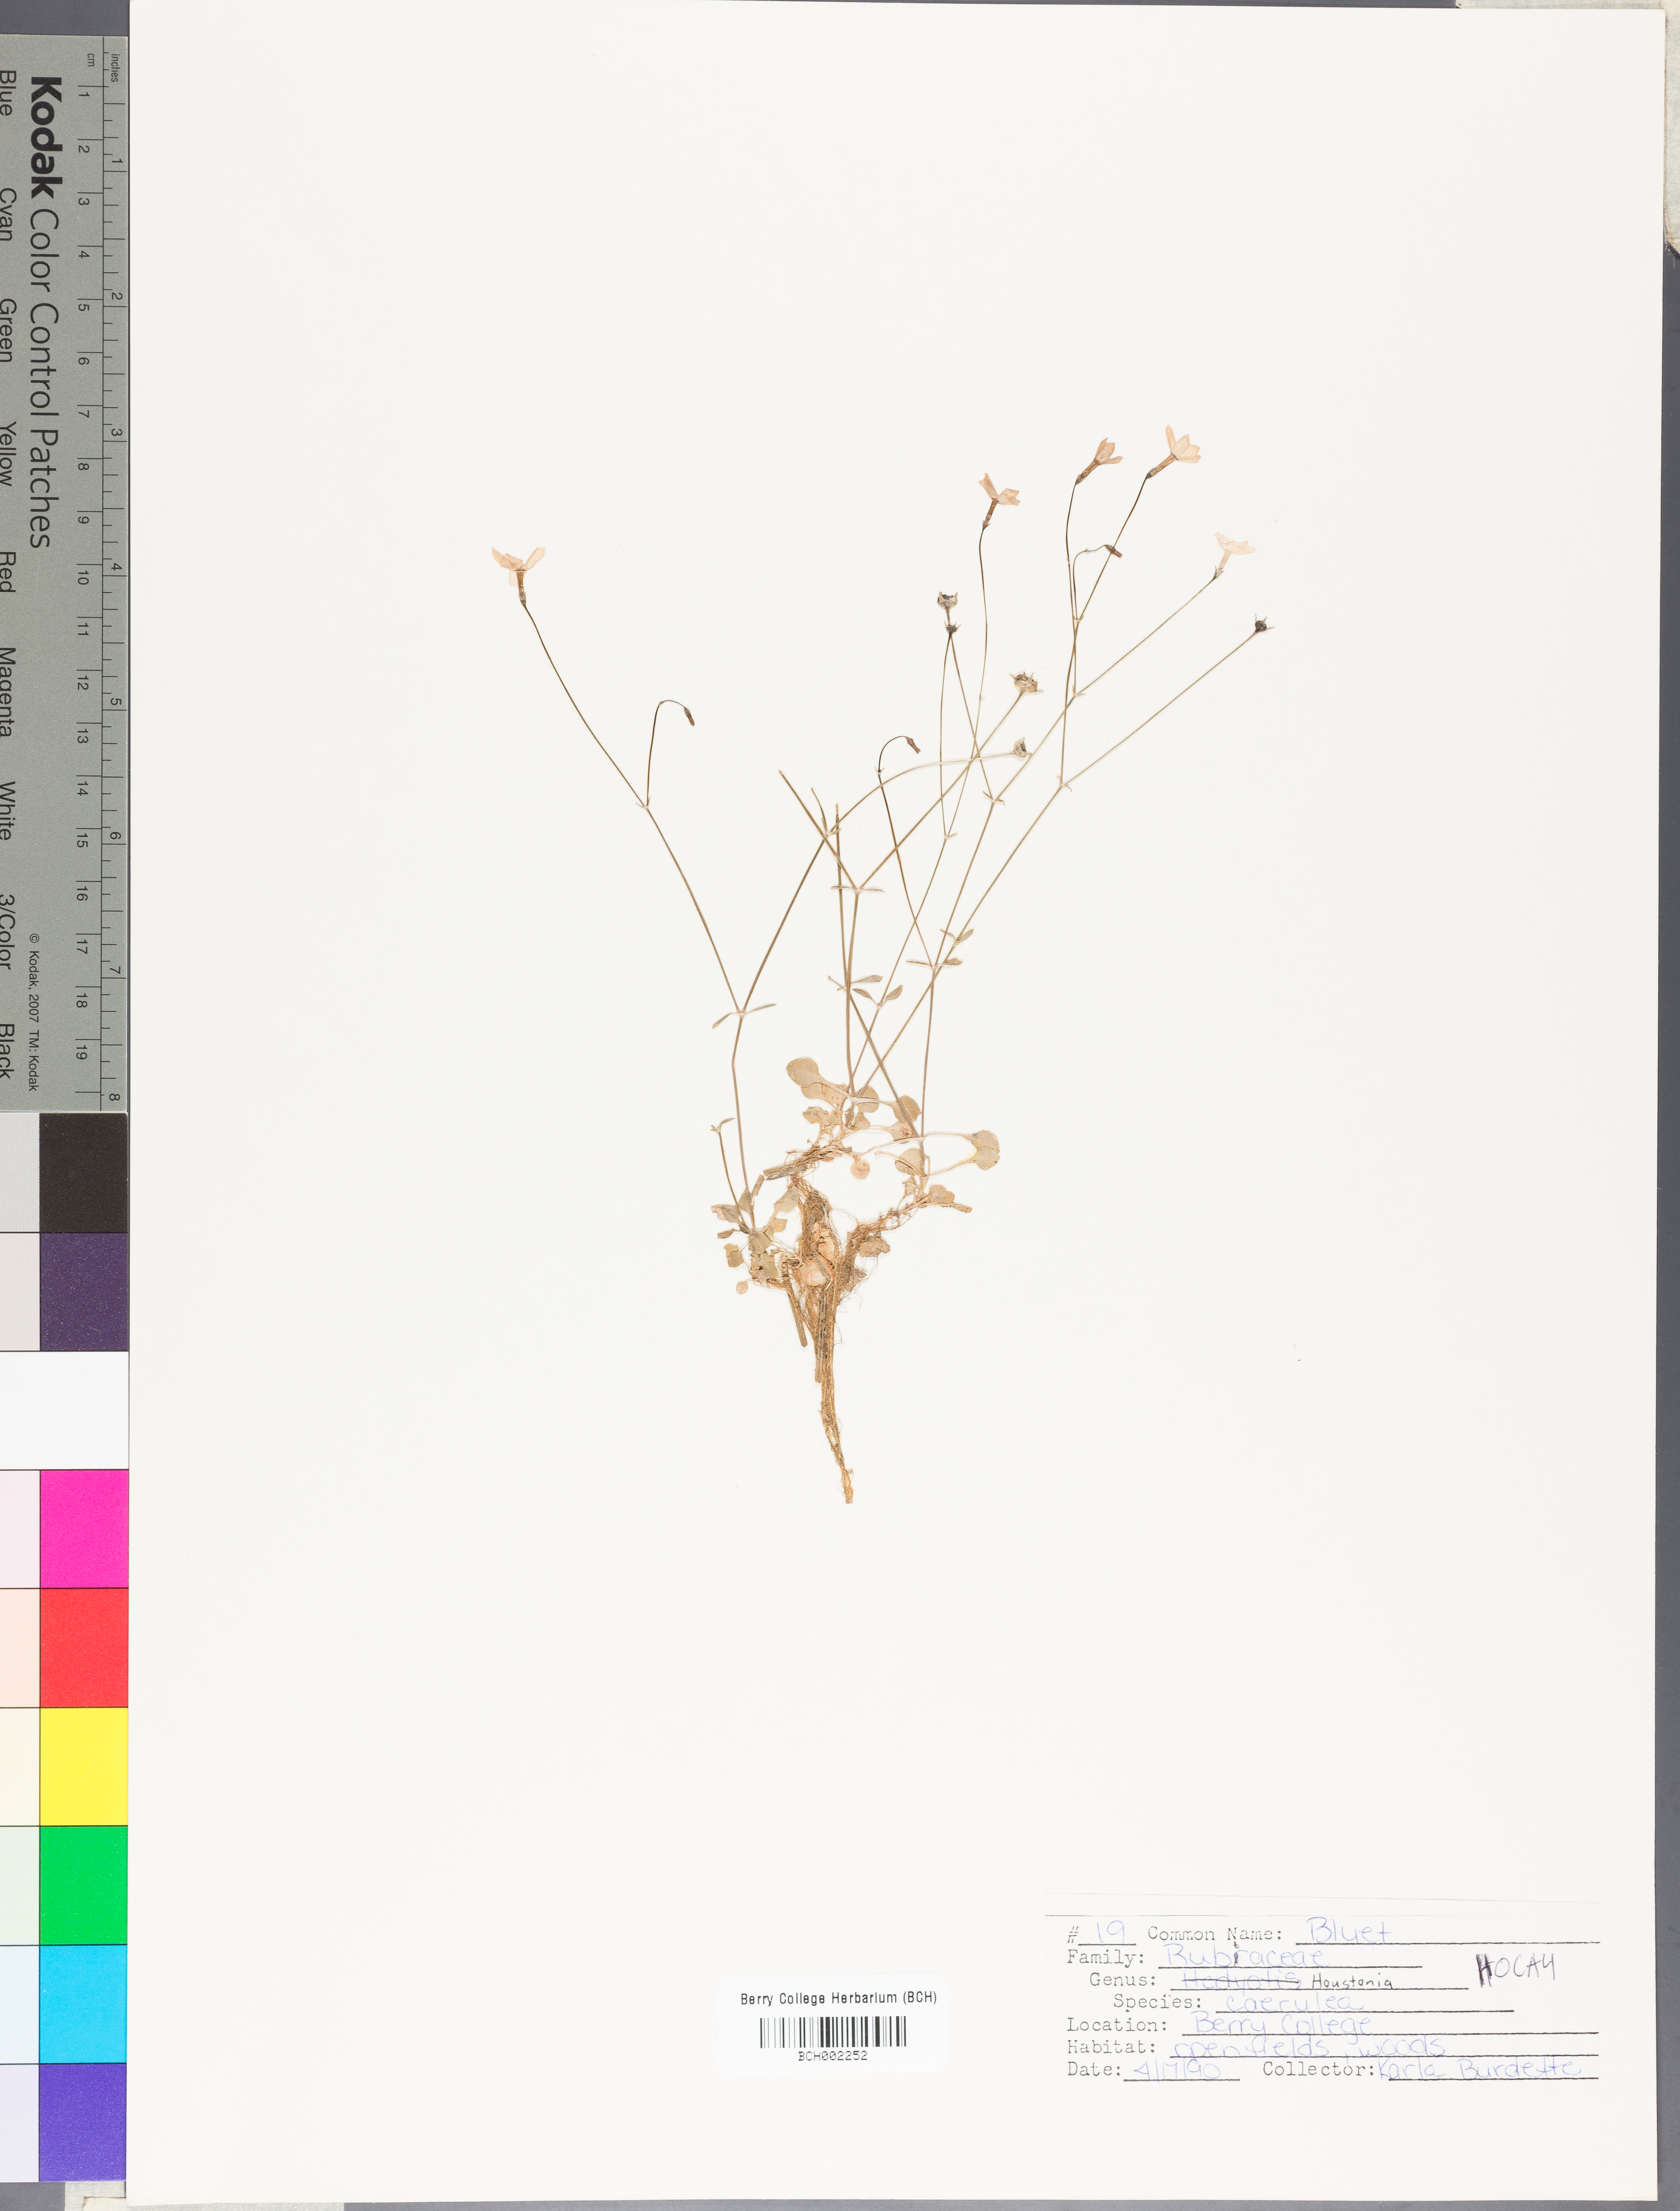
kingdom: Plantae
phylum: Tracheophyta
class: Magnoliopsida
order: Gentianales
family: Rubiaceae
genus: Houstonia
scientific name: Houstonia caerulea
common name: Bluets
